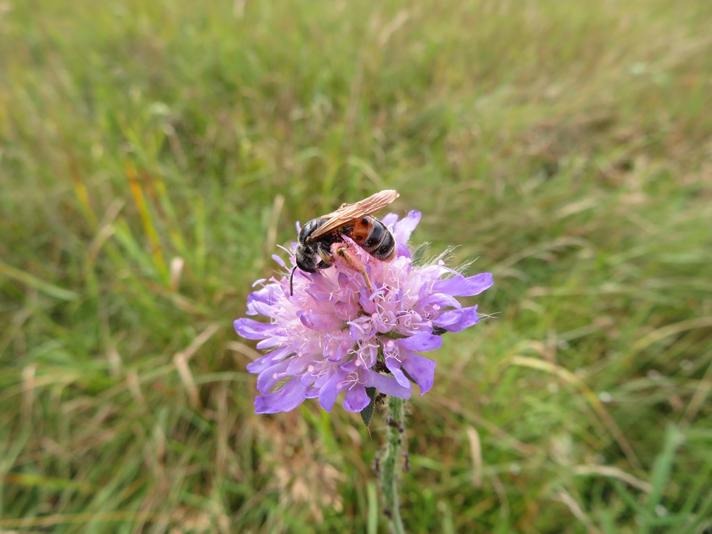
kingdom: Animalia
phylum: Arthropoda
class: Insecta
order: Hymenoptera
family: Andrenidae
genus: Andrena
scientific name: Andrena hattorfiana
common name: Blåhatjordbi
